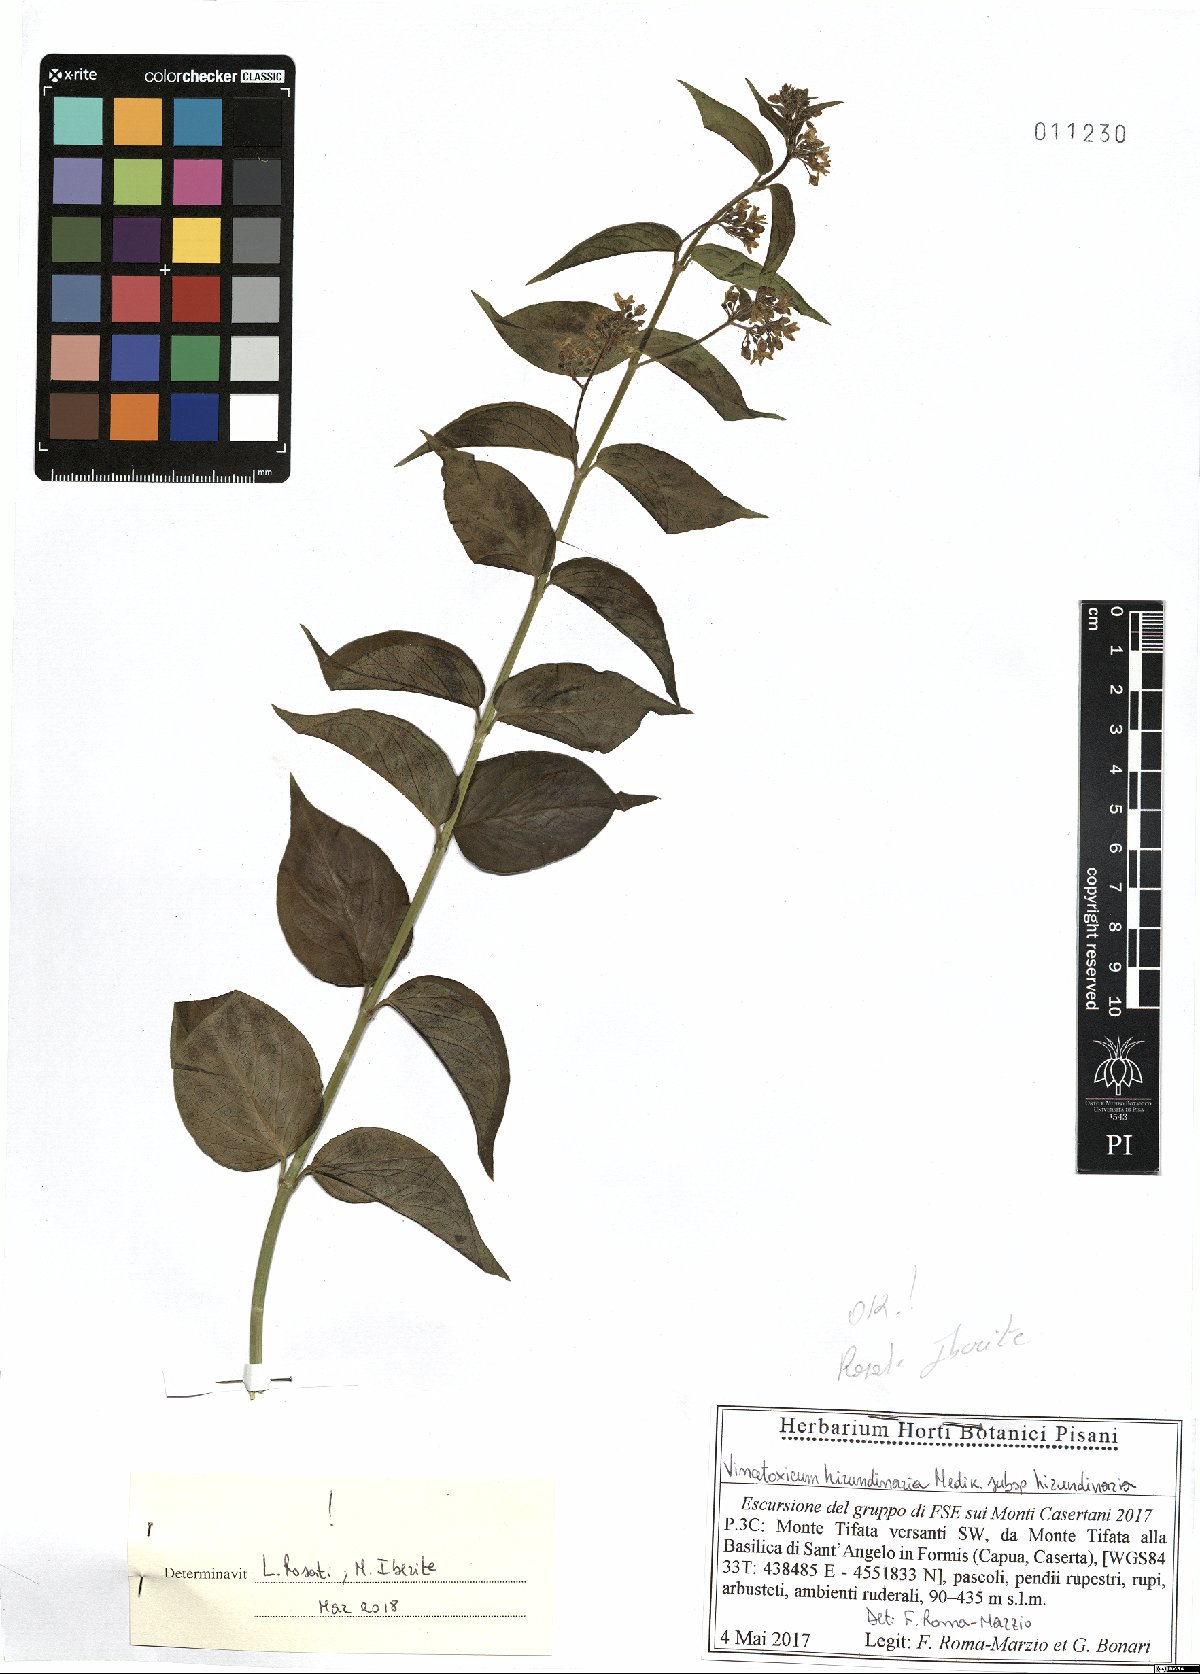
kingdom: Plantae
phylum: Tracheophyta
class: Magnoliopsida
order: Gentianales
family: Apocynaceae
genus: Vincetoxicum
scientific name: Vincetoxicum hirundinaria
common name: White swallowwort
